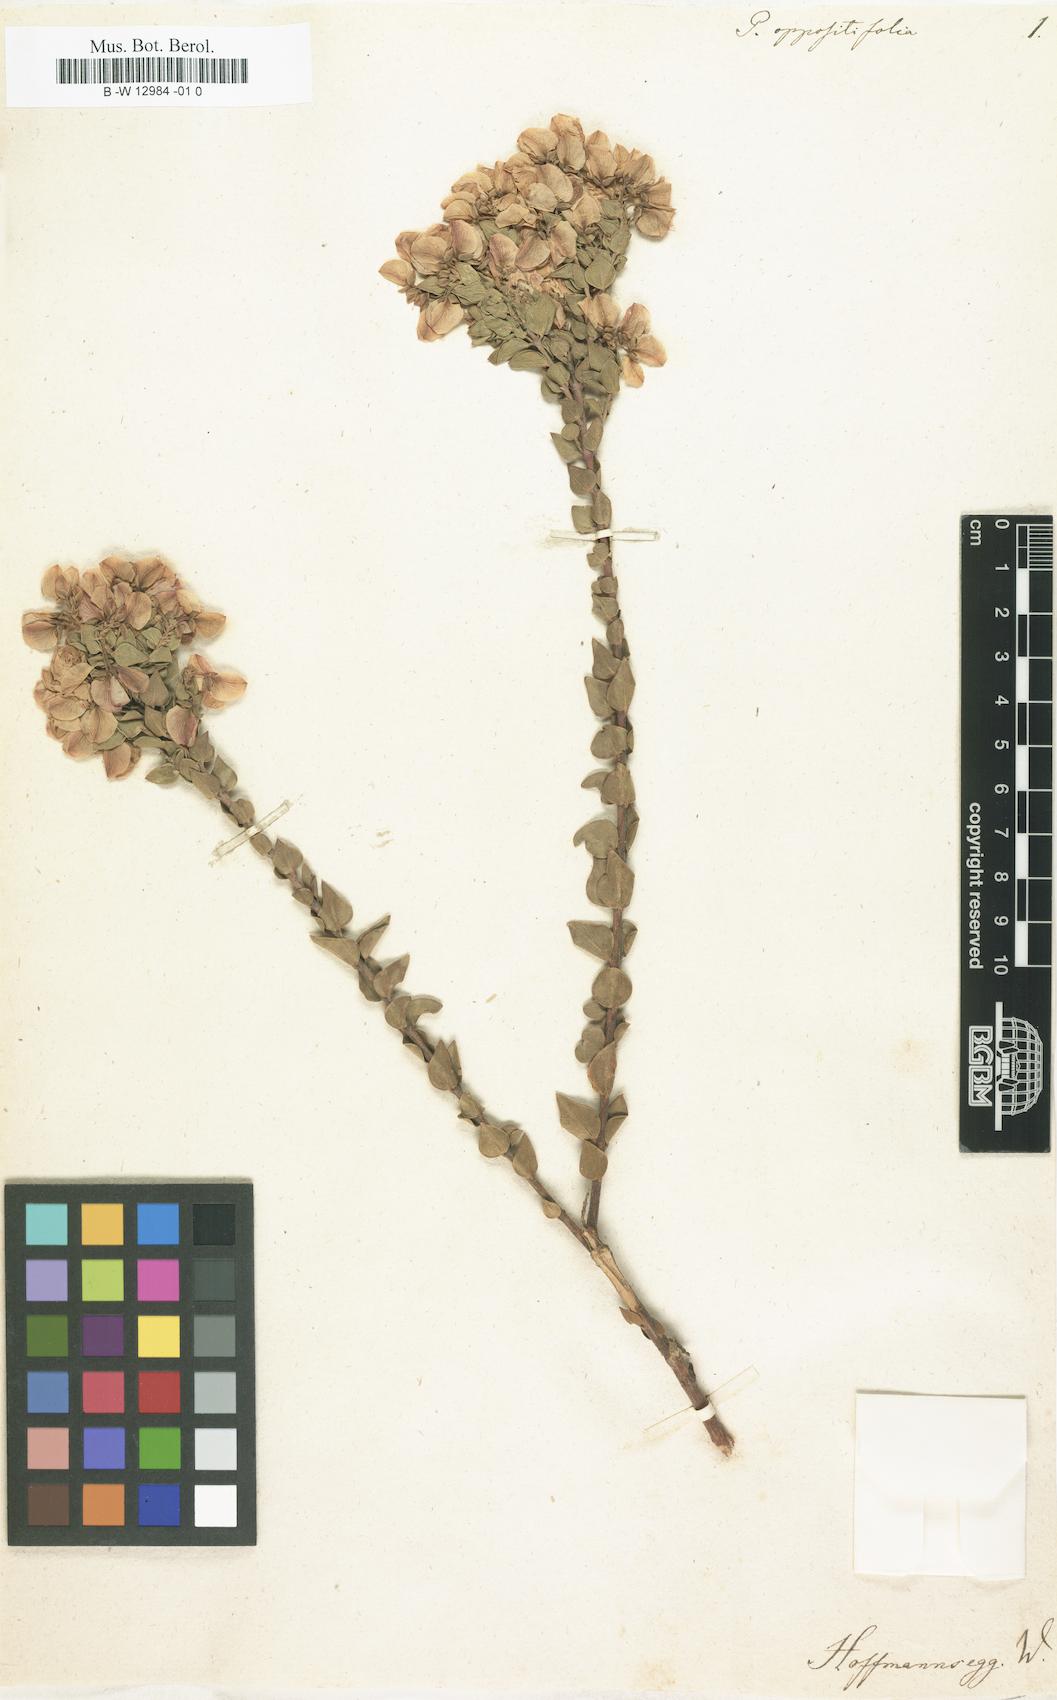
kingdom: Plantae
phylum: Tracheophyta
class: Magnoliopsida
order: Fabales
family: Polygalaceae
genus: Polygala
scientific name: Polygala fruticosa
